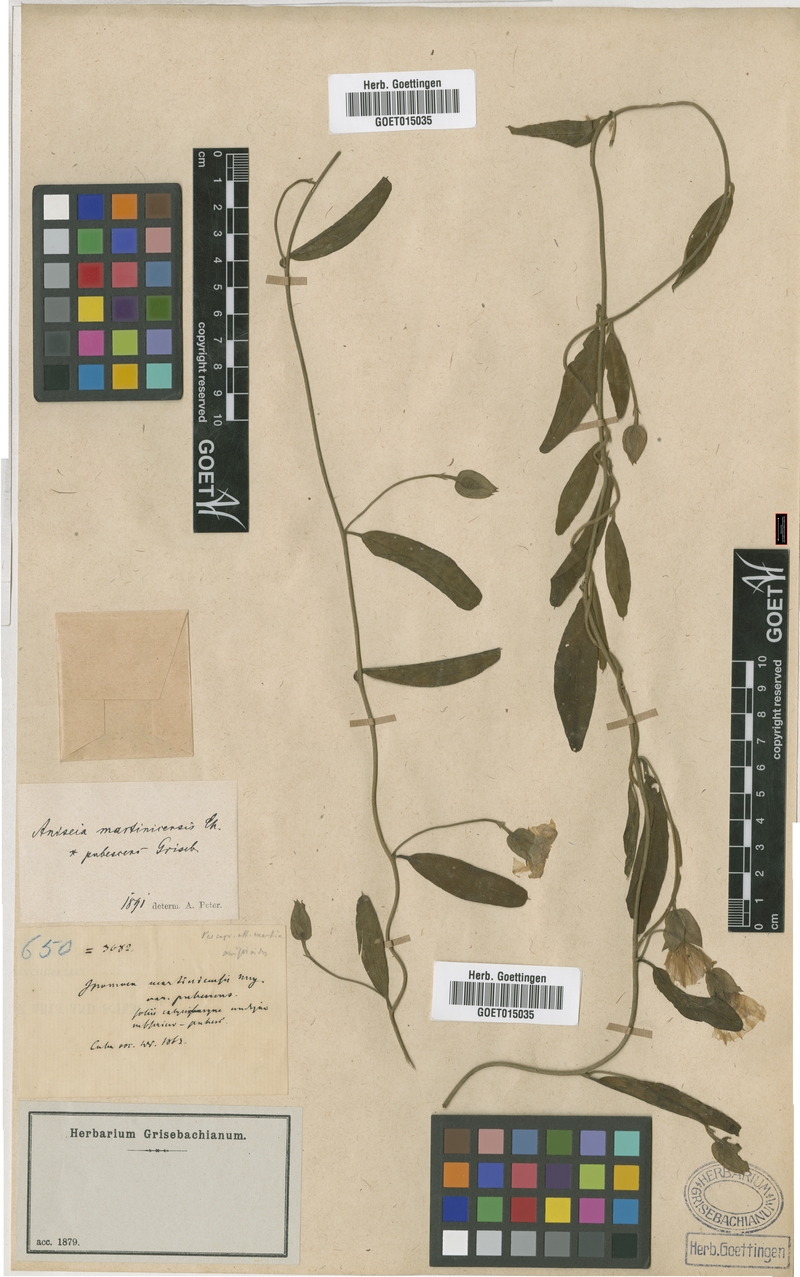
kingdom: Plantae
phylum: Tracheophyta
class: Magnoliopsida
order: Solanales
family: Convolvulaceae
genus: Aniseia
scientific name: Aniseia martinicensis
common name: Kulayadambu
